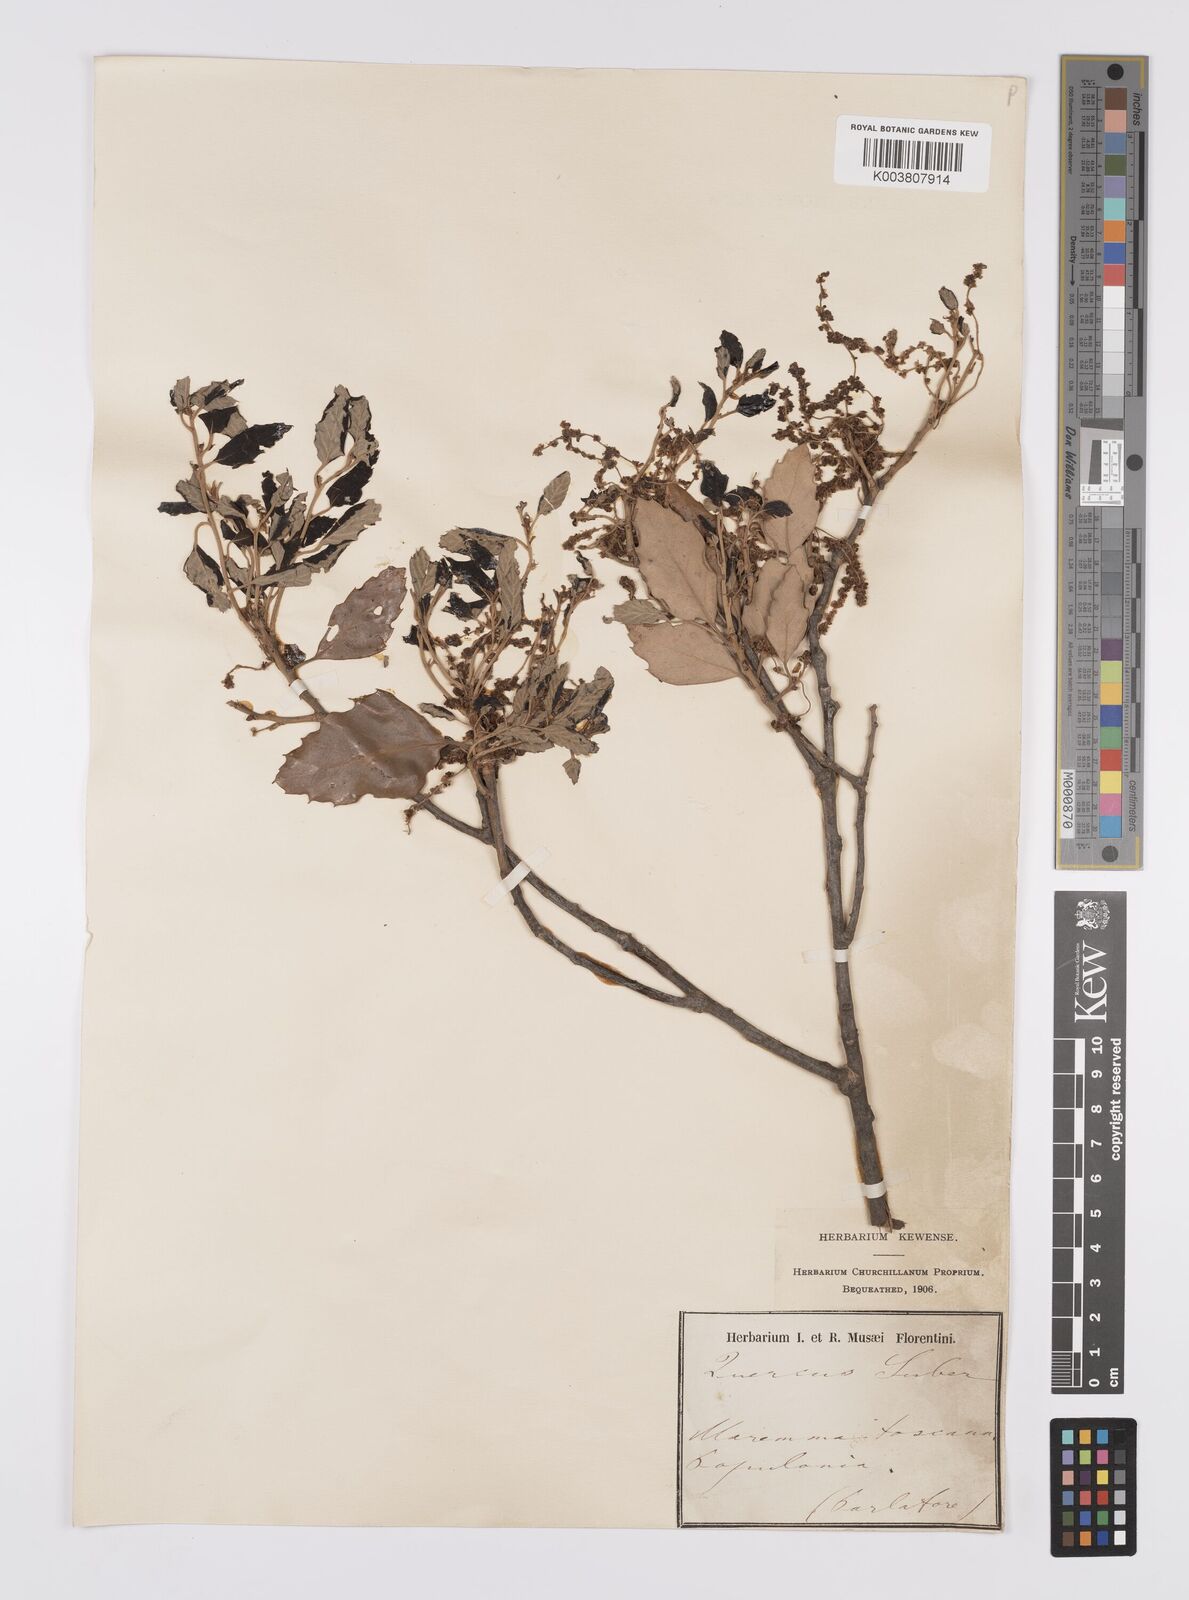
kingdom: Plantae
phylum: Tracheophyta
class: Magnoliopsida
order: Fagales
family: Fagaceae
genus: Quercus
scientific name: Quercus suber
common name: Cork oak
